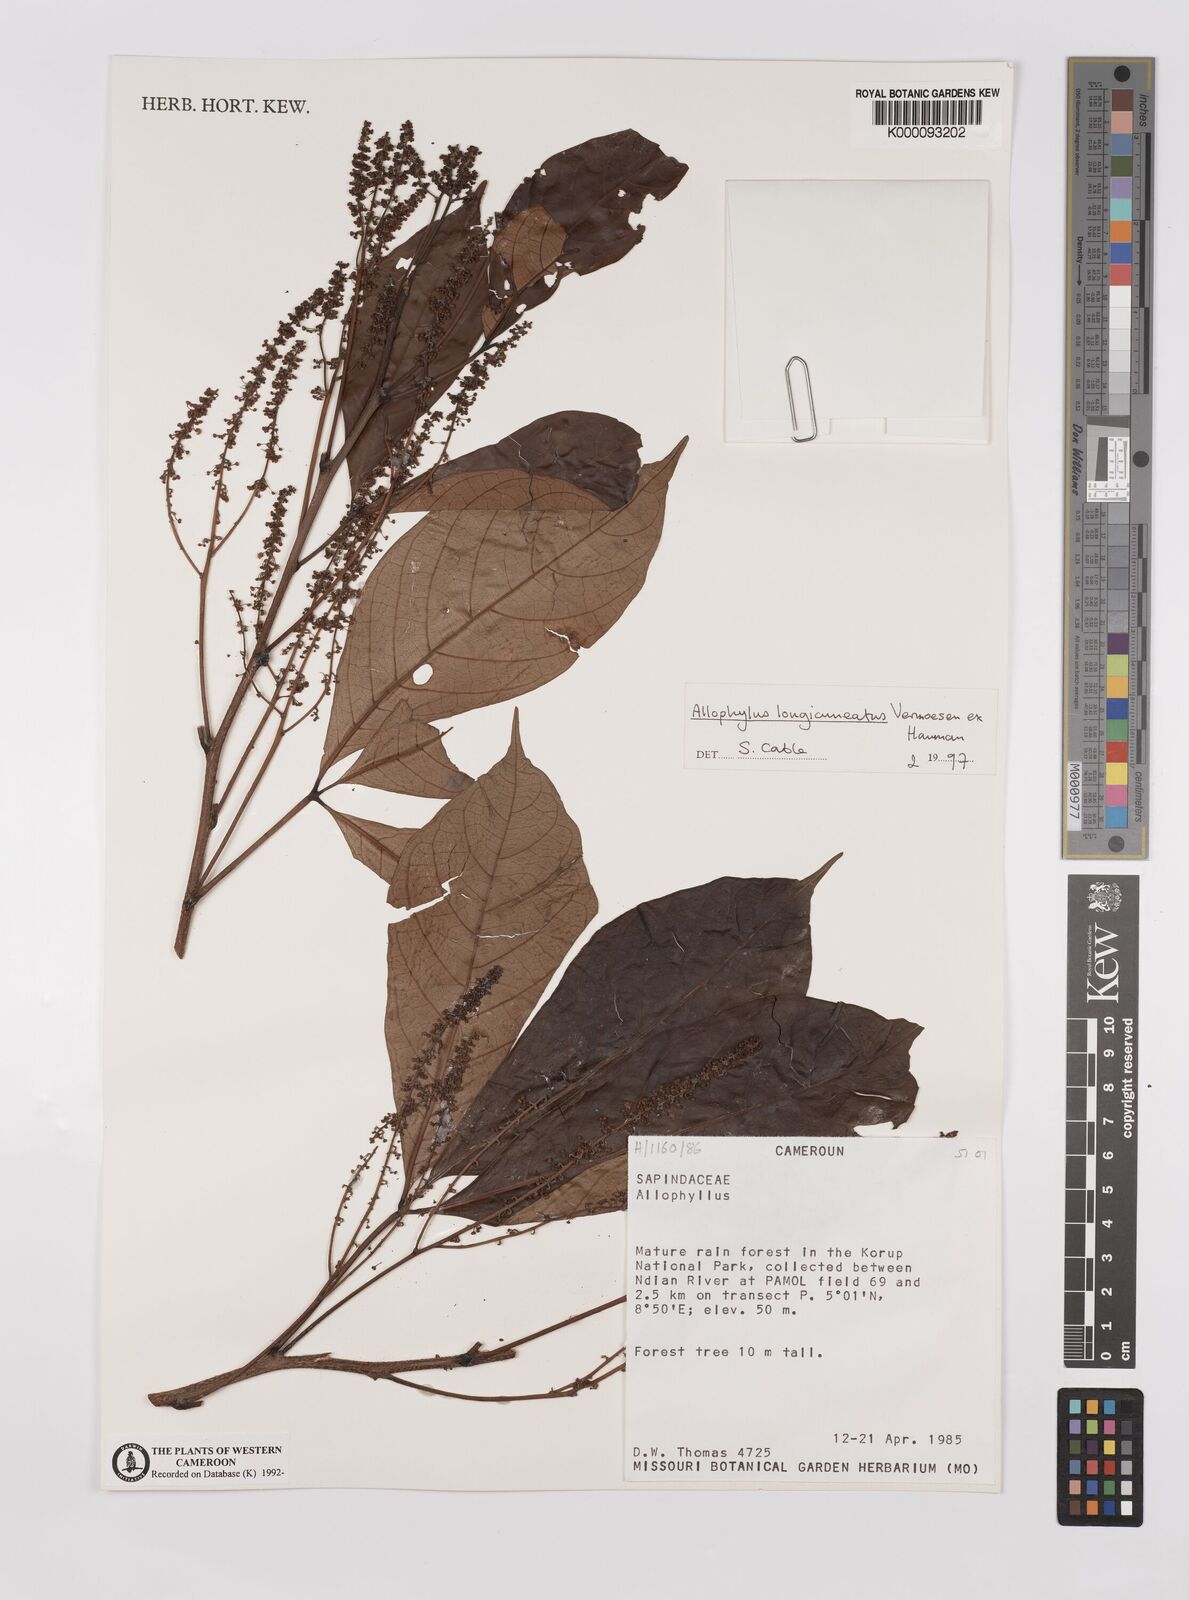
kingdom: Plantae
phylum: Tracheophyta
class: Magnoliopsida
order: Sapindales
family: Sapindaceae
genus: Allophylus
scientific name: Allophylus longicuneatus
